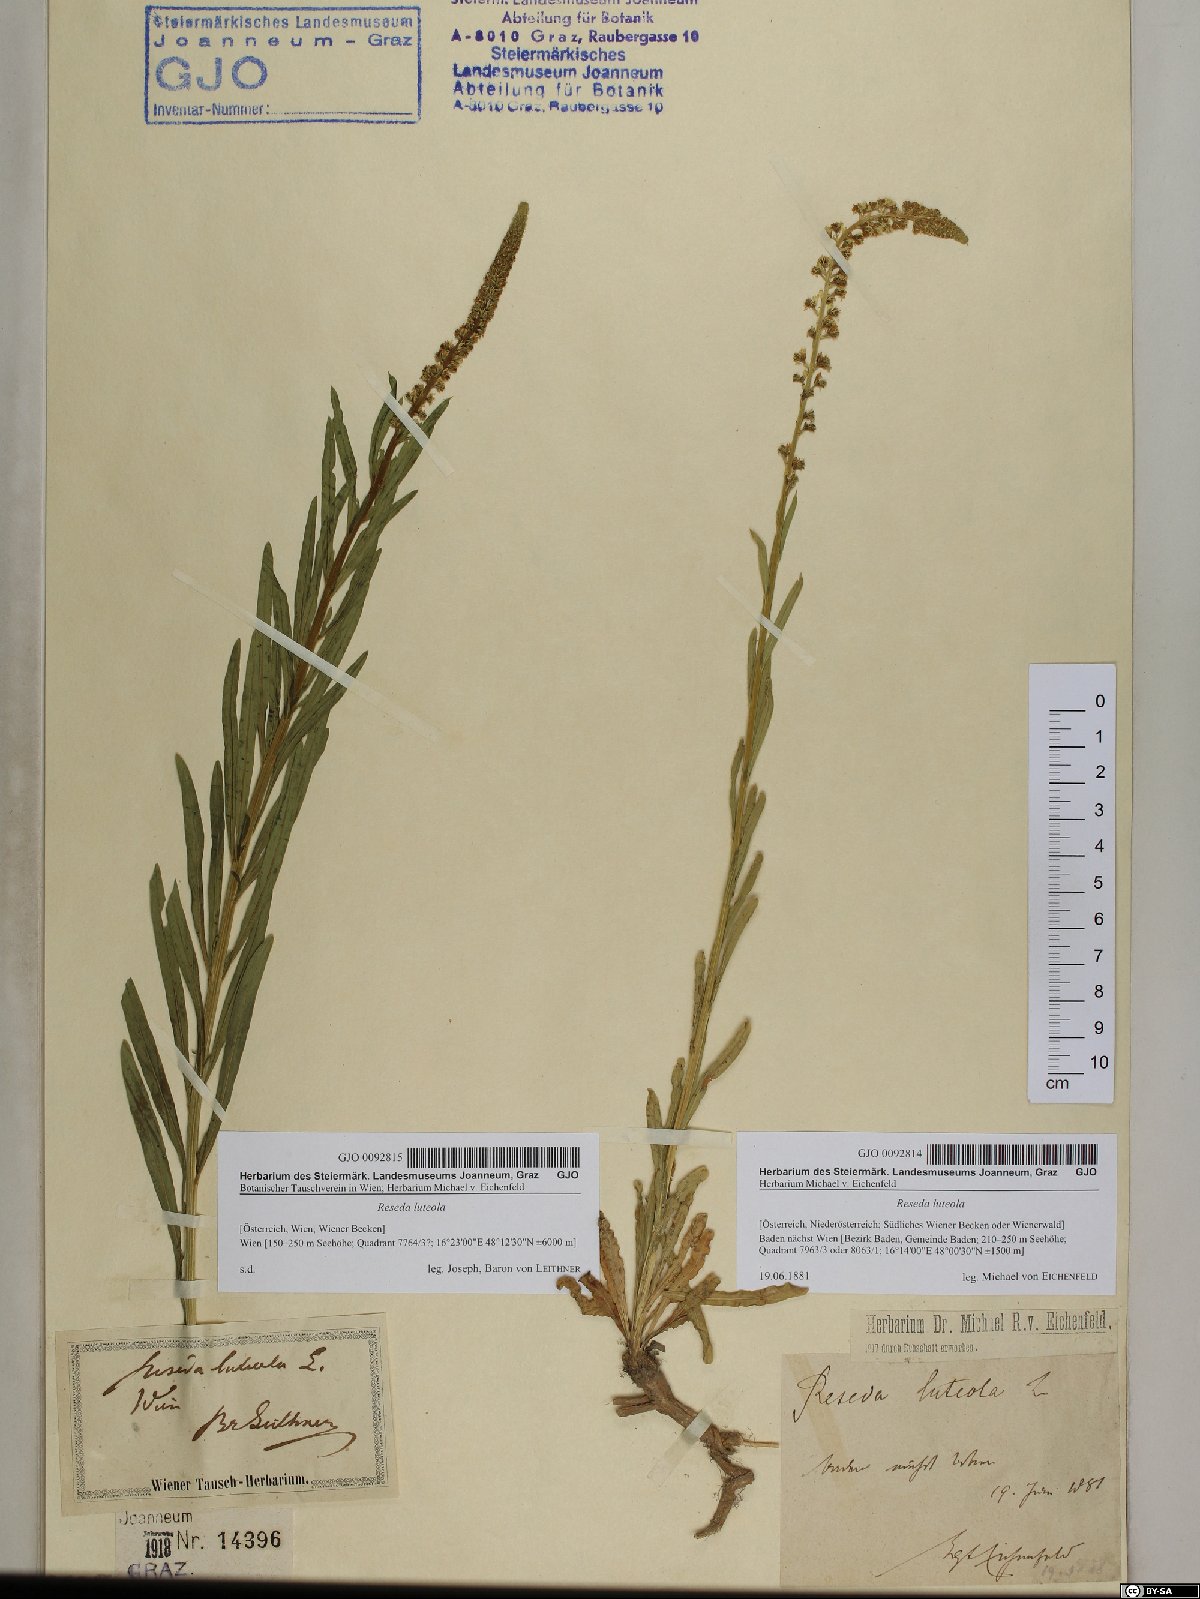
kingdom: Plantae
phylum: Tracheophyta
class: Magnoliopsida
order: Brassicales
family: Resedaceae
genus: Reseda
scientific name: Reseda luteola
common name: Weld
